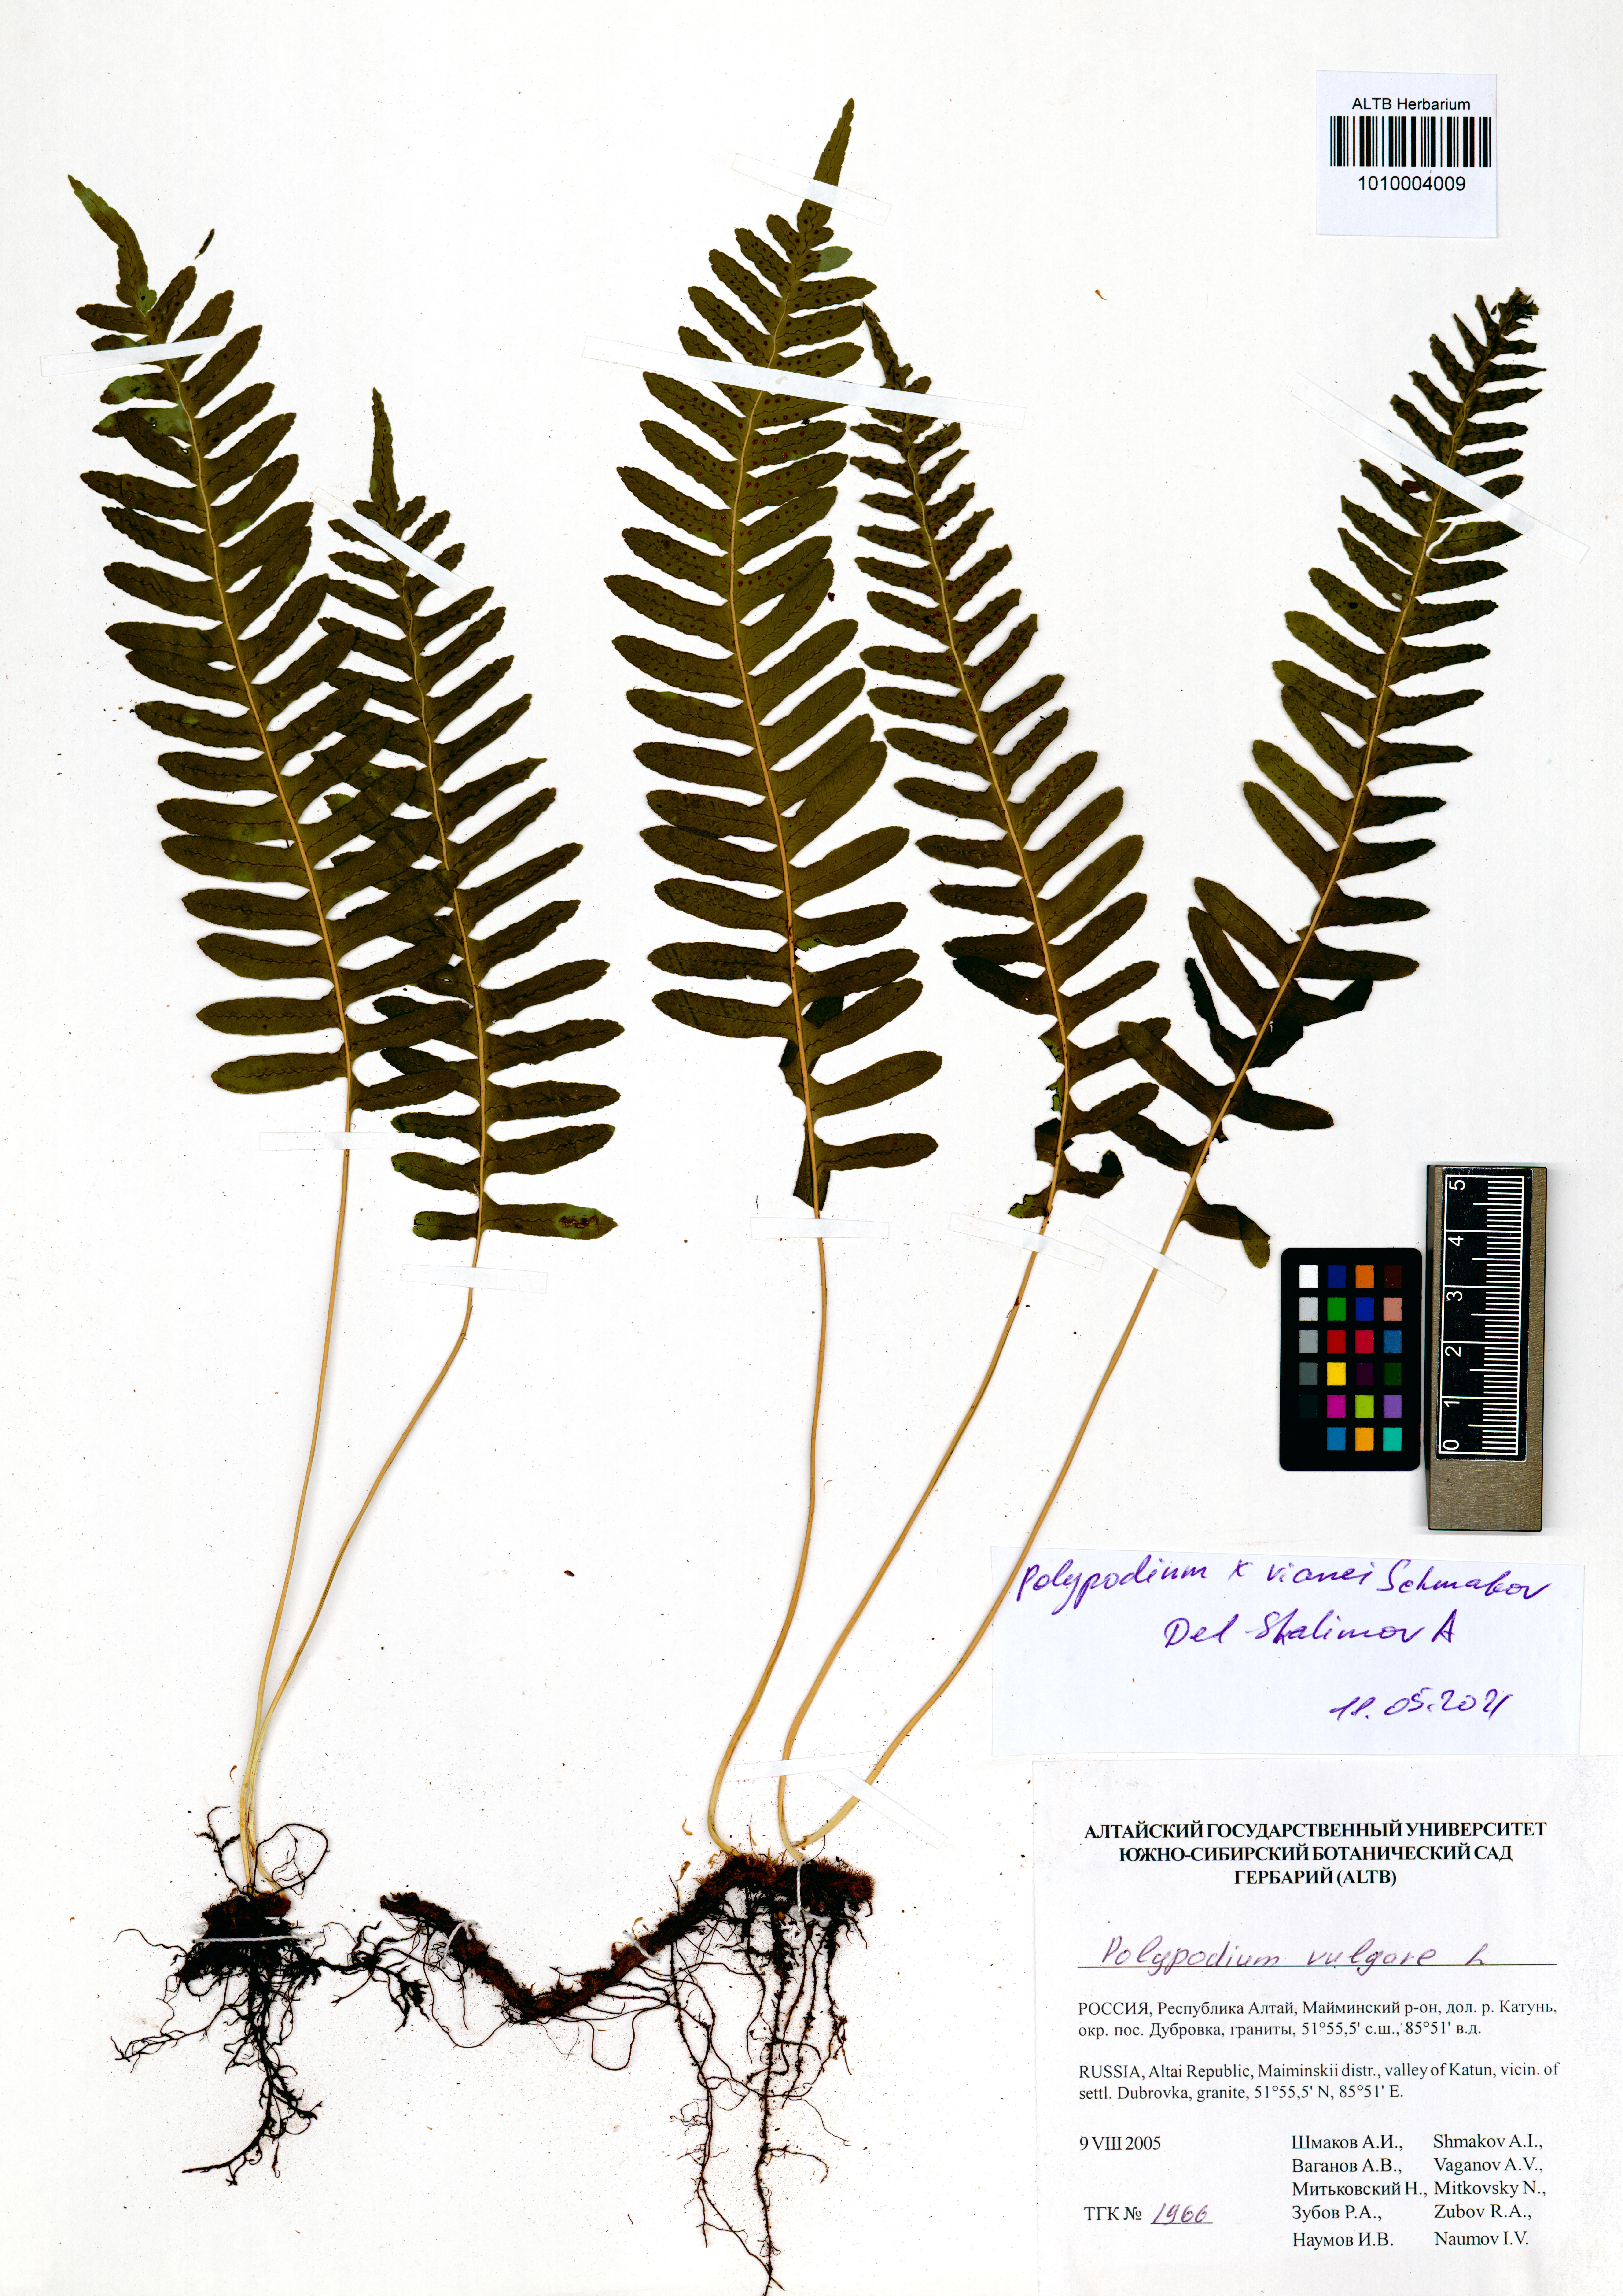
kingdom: Plantae
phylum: Tracheophyta
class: Polypodiopsida
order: Polypodiales
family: Polypodiaceae
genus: Polypodium
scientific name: Polypodium vianei
